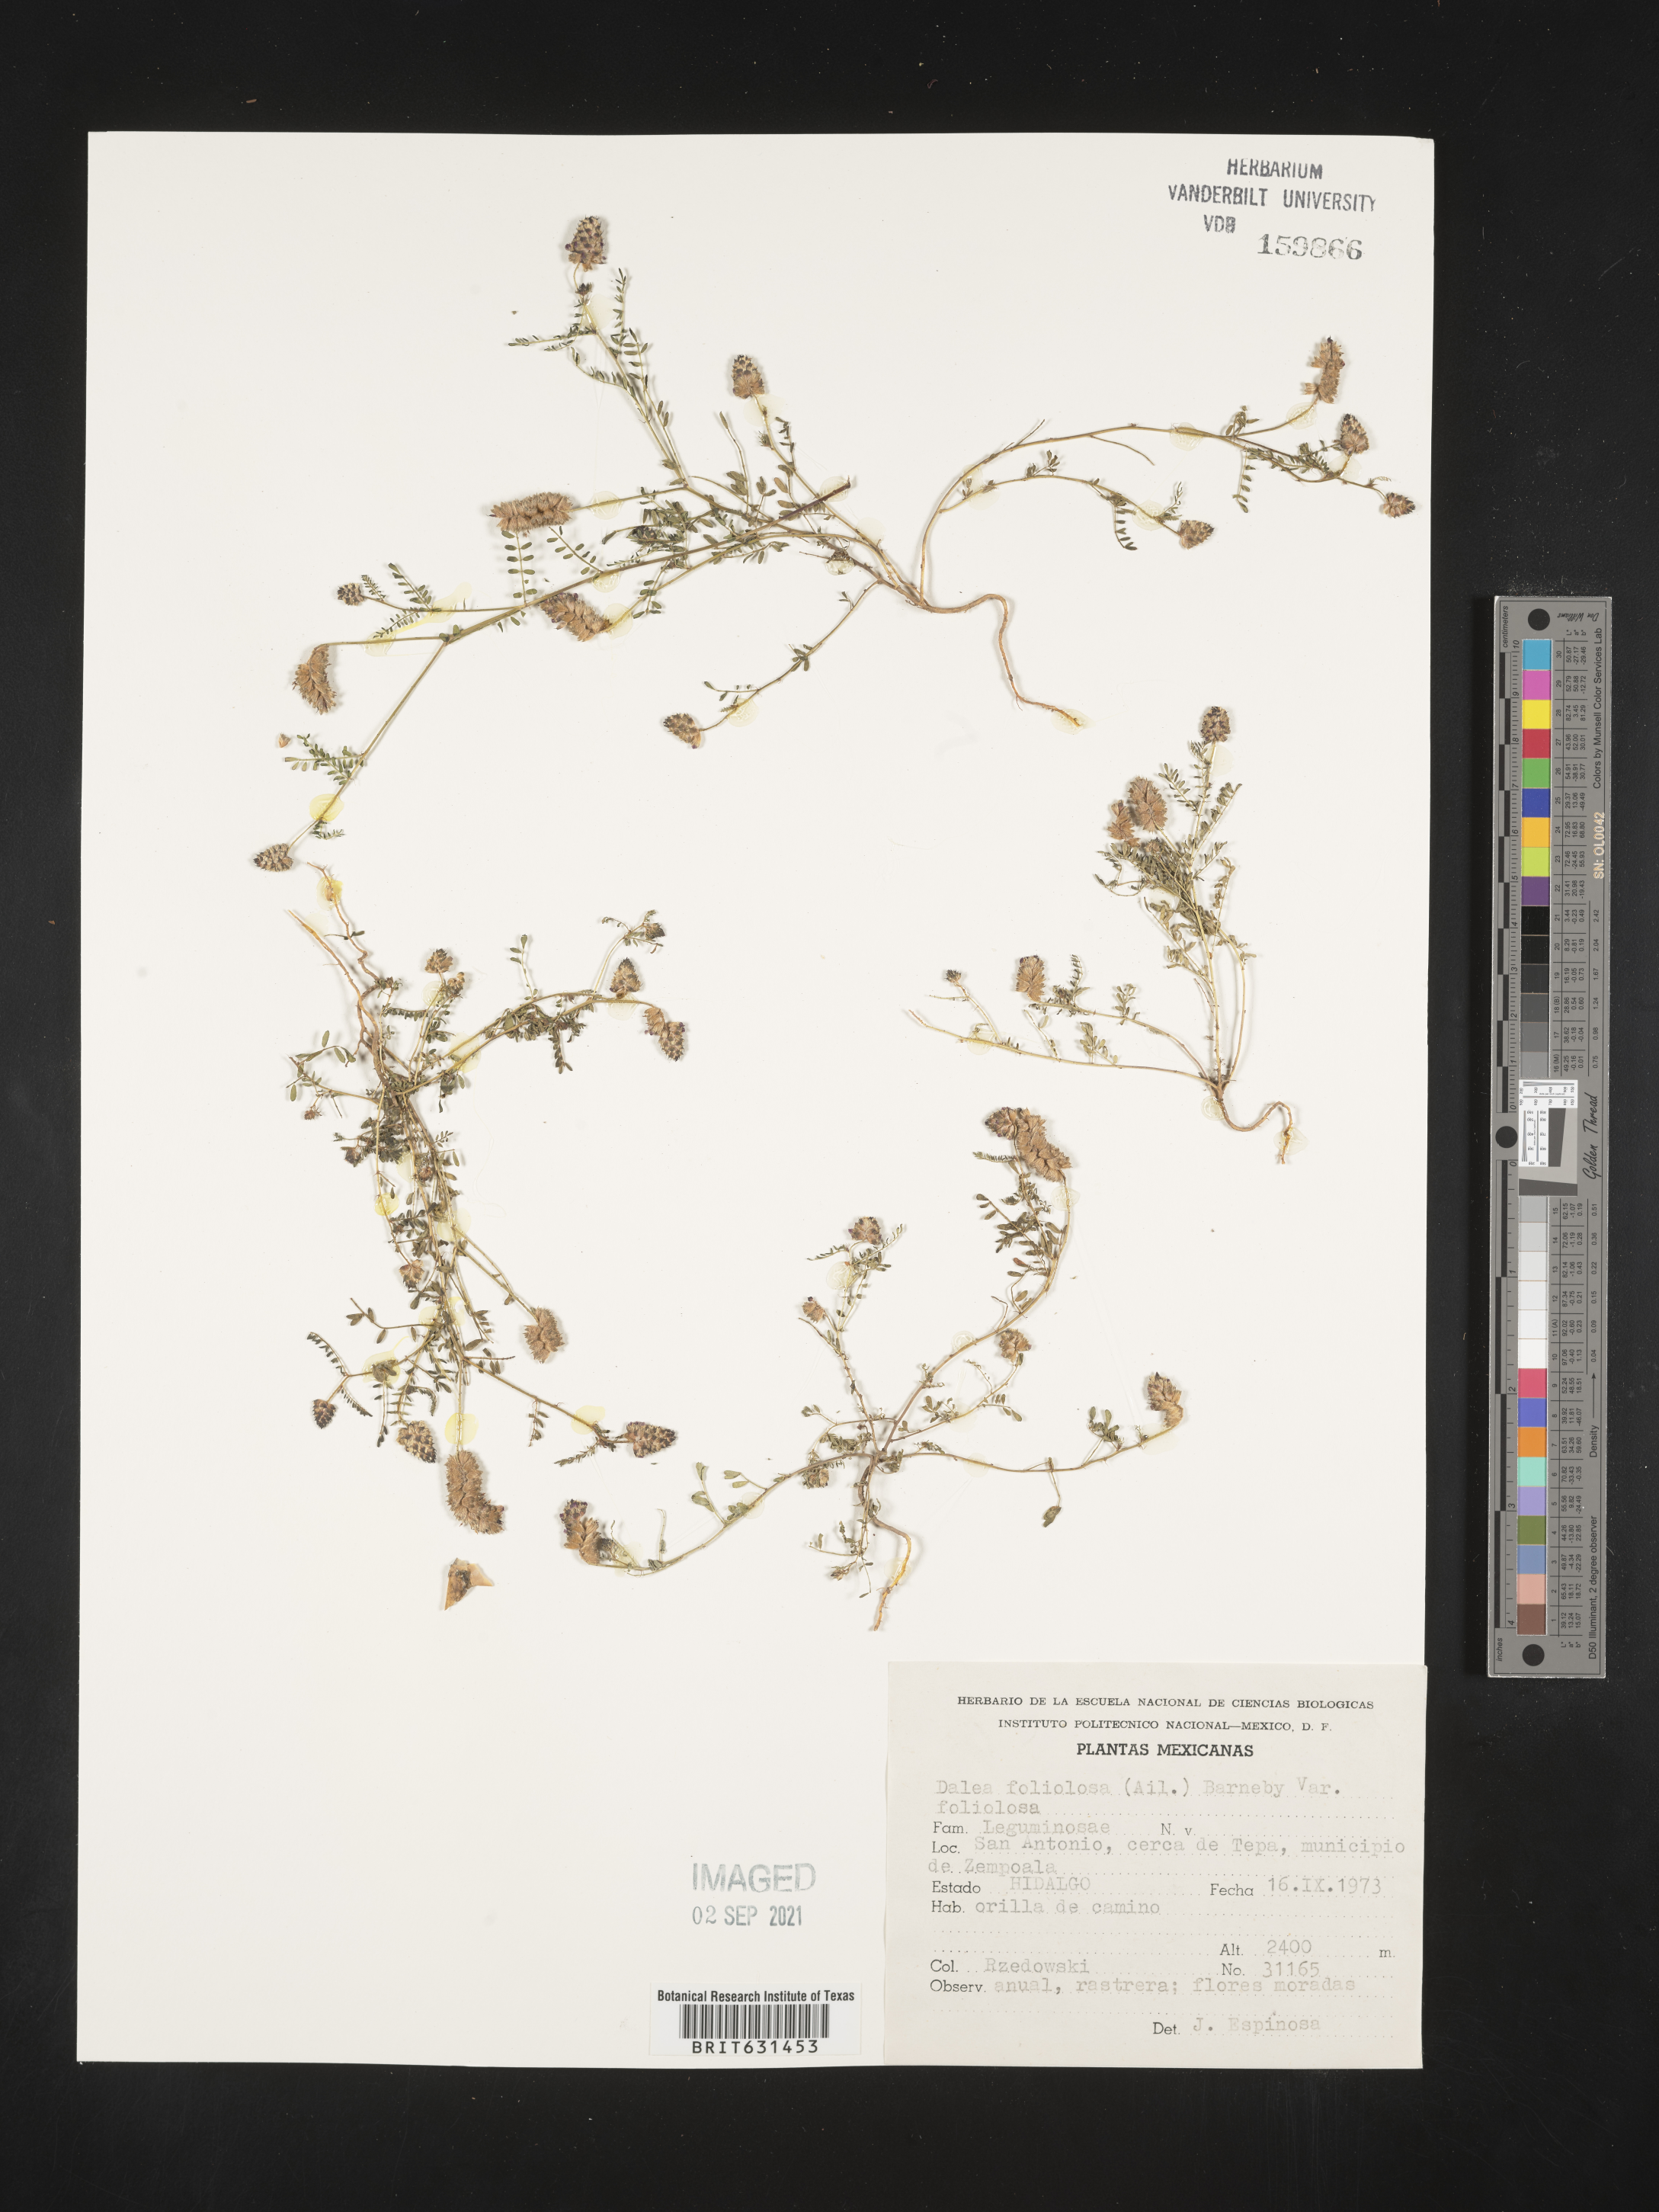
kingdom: Plantae
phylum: Tracheophyta
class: Magnoliopsida
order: Fabales
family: Fabaceae
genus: Dalea
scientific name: Dalea foliolosa
